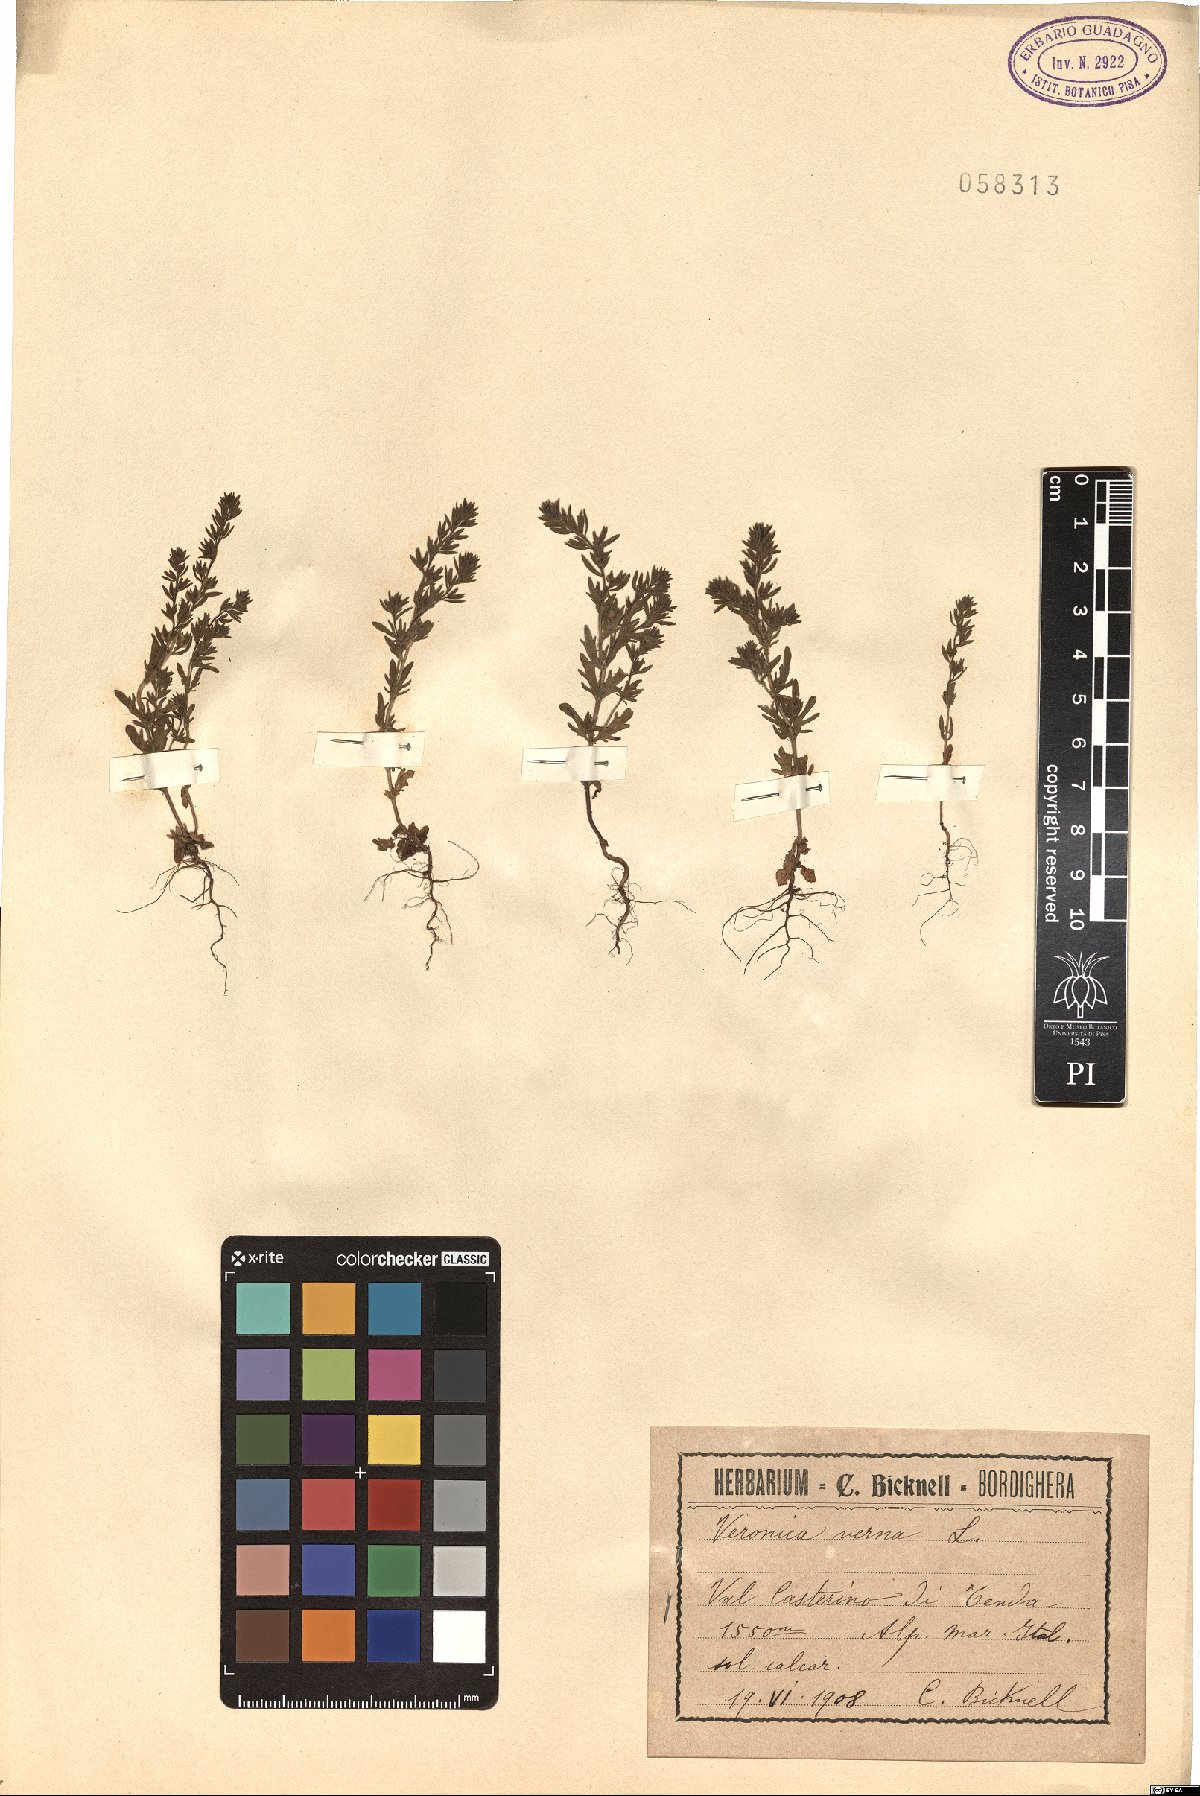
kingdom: Plantae
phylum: Tracheophyta
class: Magnoliopsida
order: Lamiales
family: Plantaginaceae
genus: Veronica
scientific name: Veronica verna
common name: Spring speedwell
